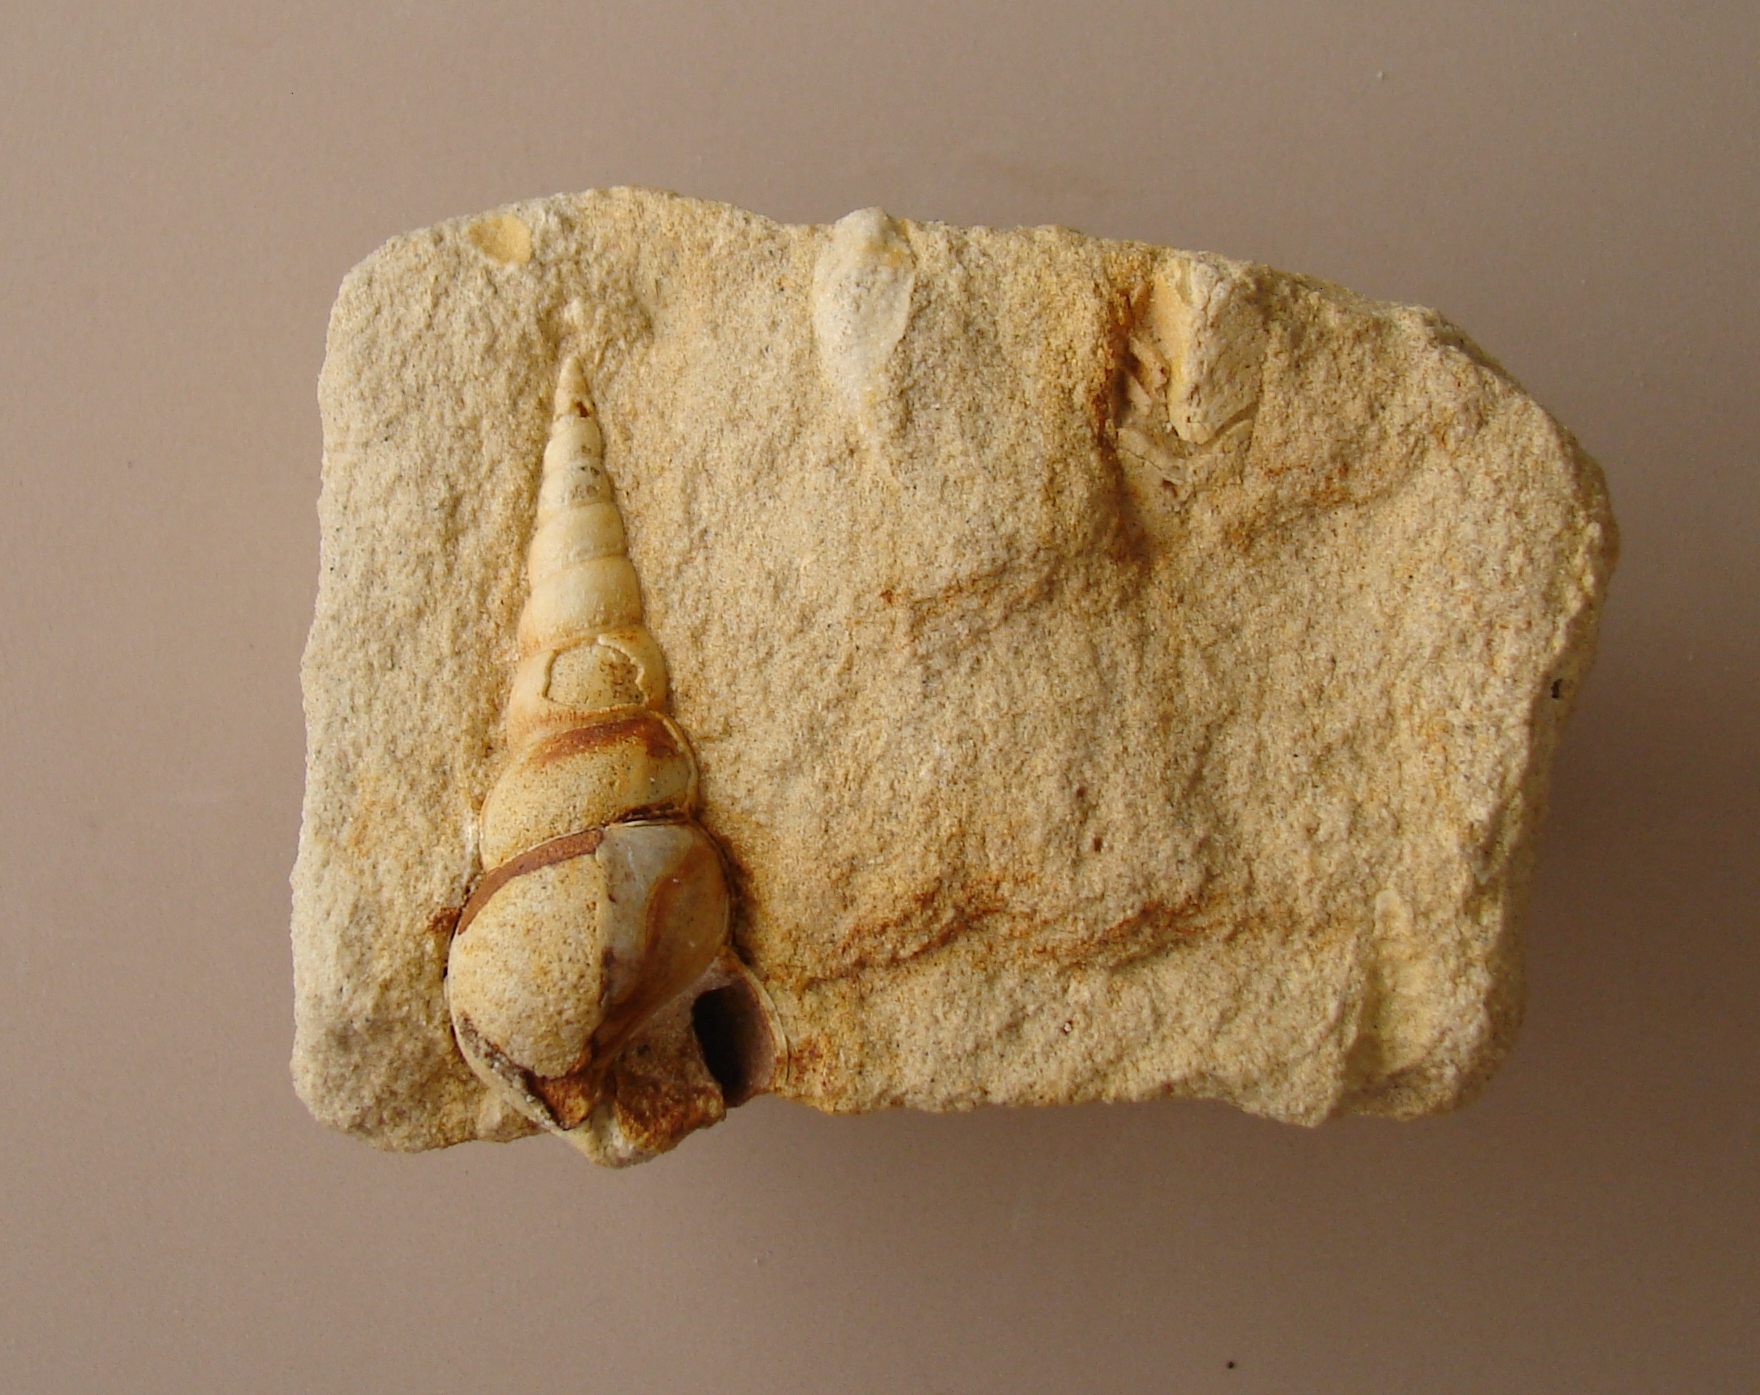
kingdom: Animalia
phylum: Mollusca
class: Gastropoda
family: Pseudomelaniidae
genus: Bourgetia
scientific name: Bourgetia Turritella deshayesea
